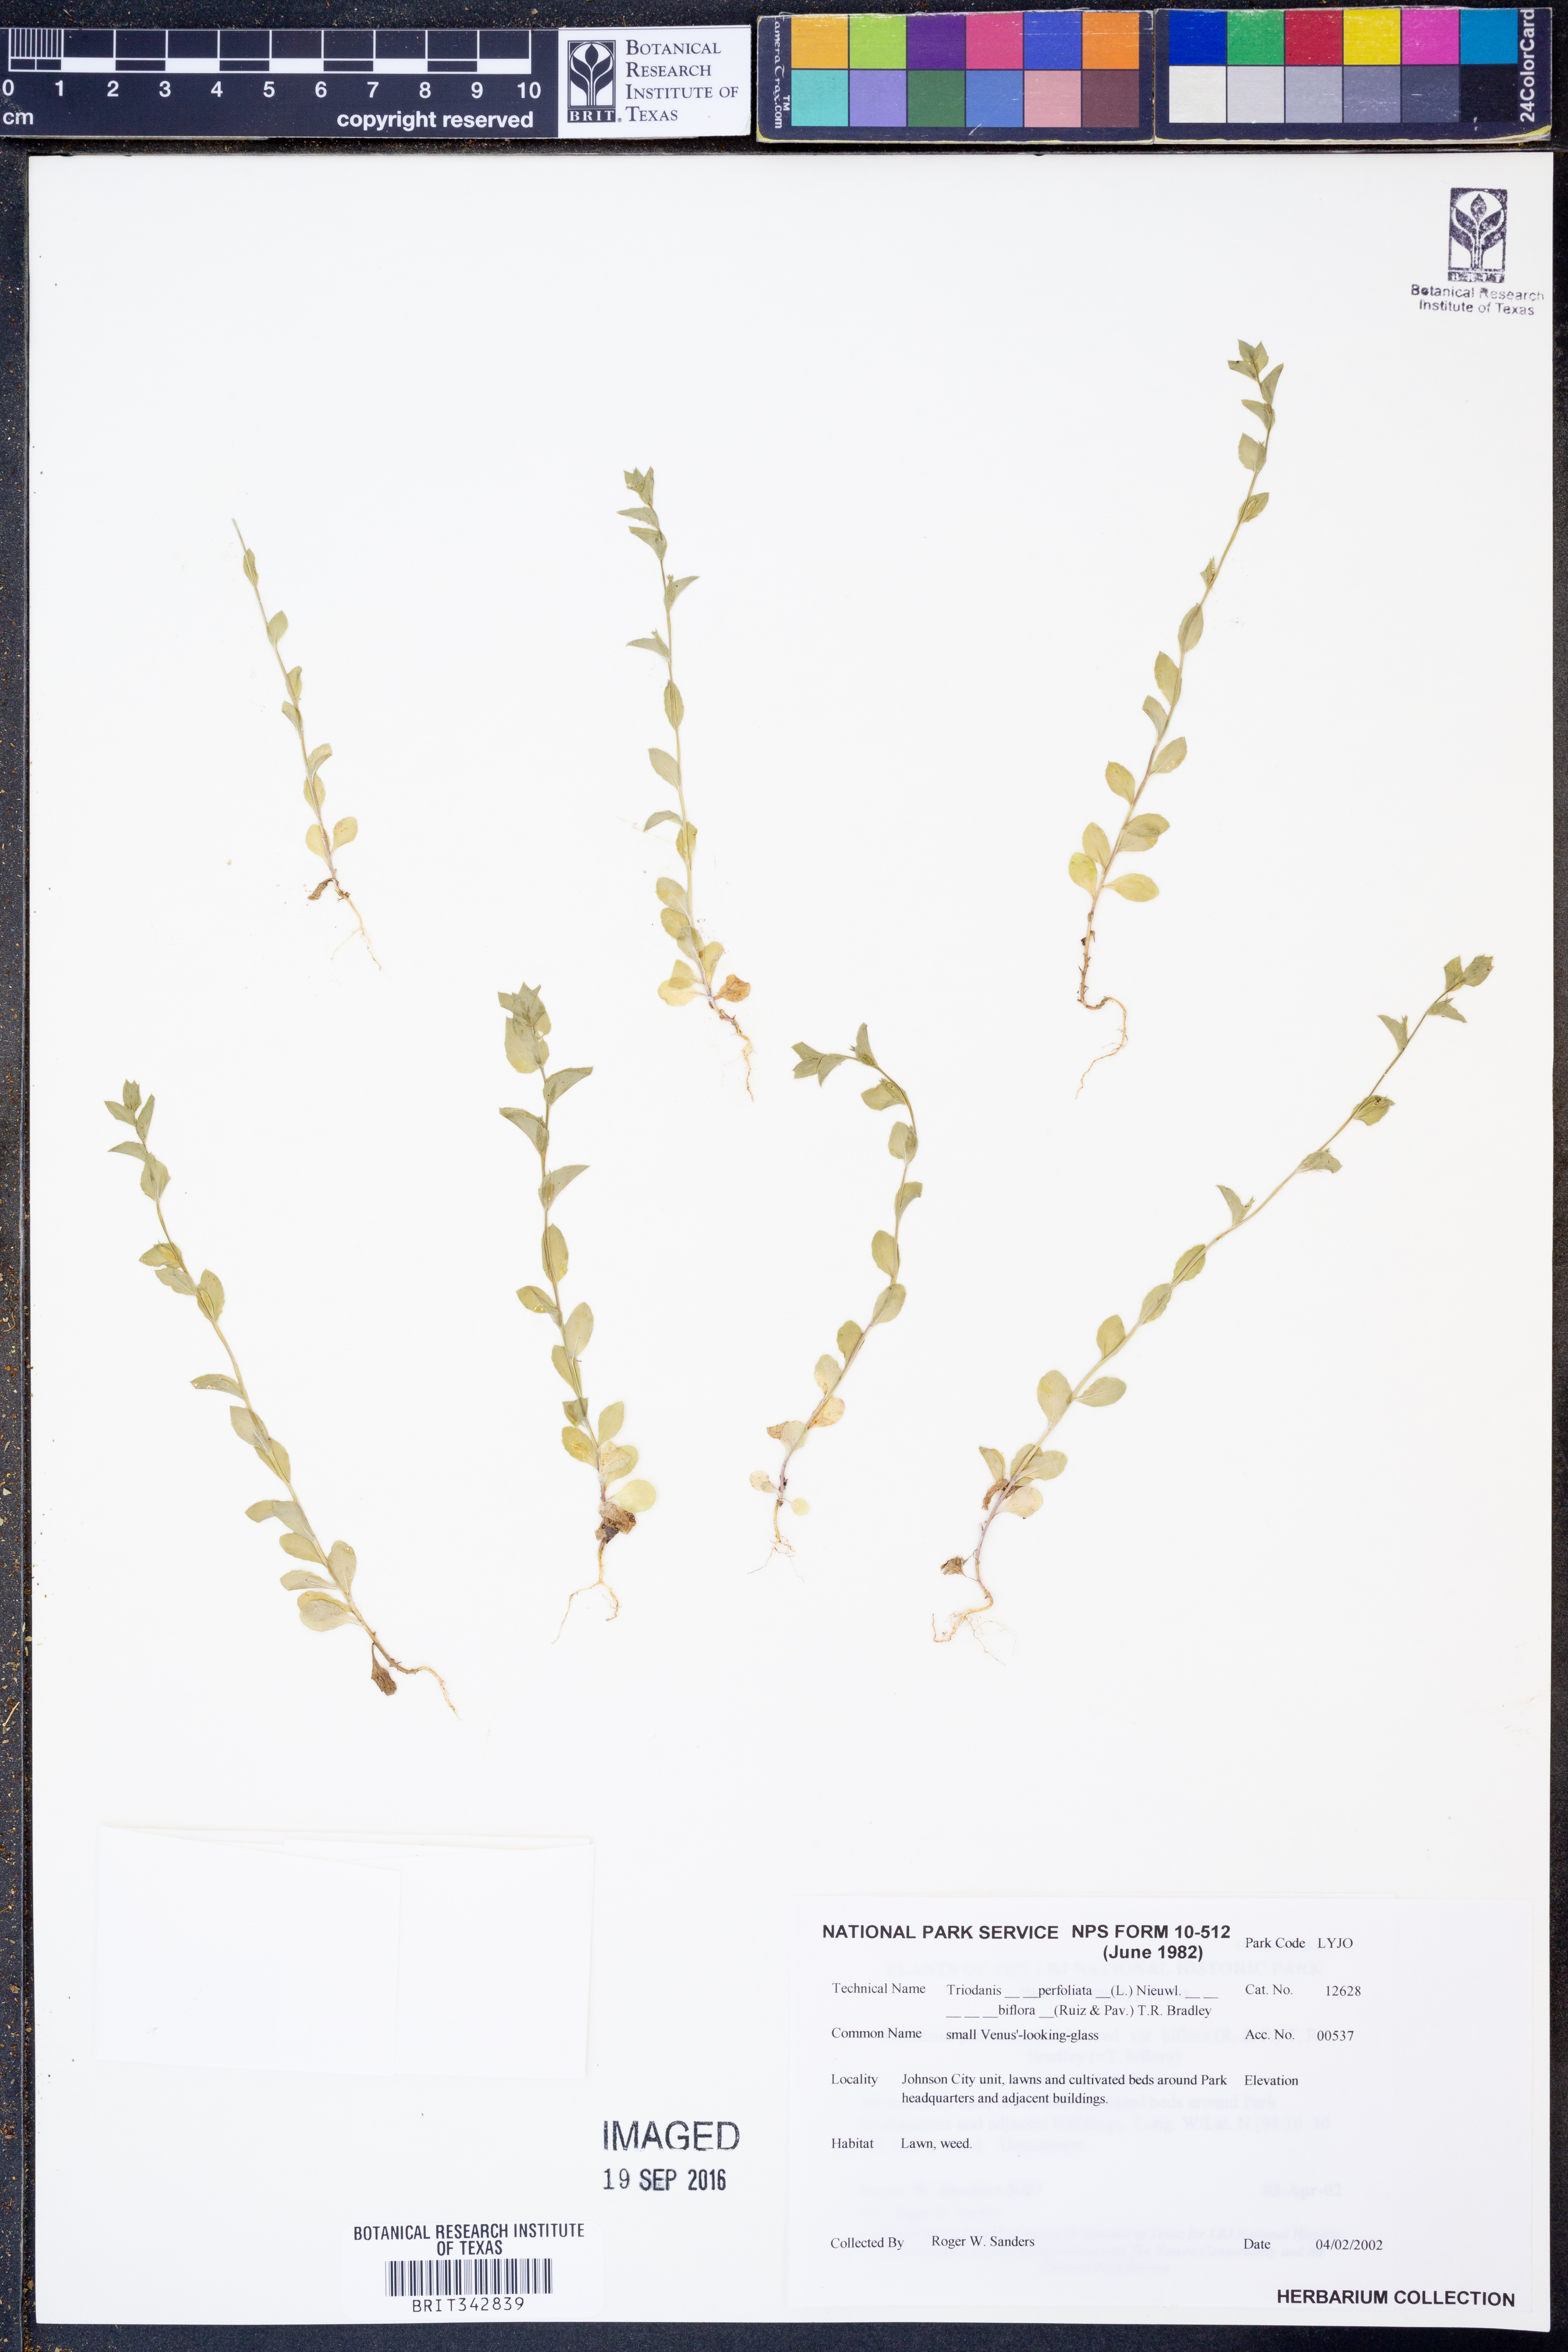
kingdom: Plantae
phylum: Tracheophyta
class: Magnoliopsida
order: Asterales
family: Campanulaceae
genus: Triodanis
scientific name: Triodanis perfoliata
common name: Clasping venus' looking-glass
